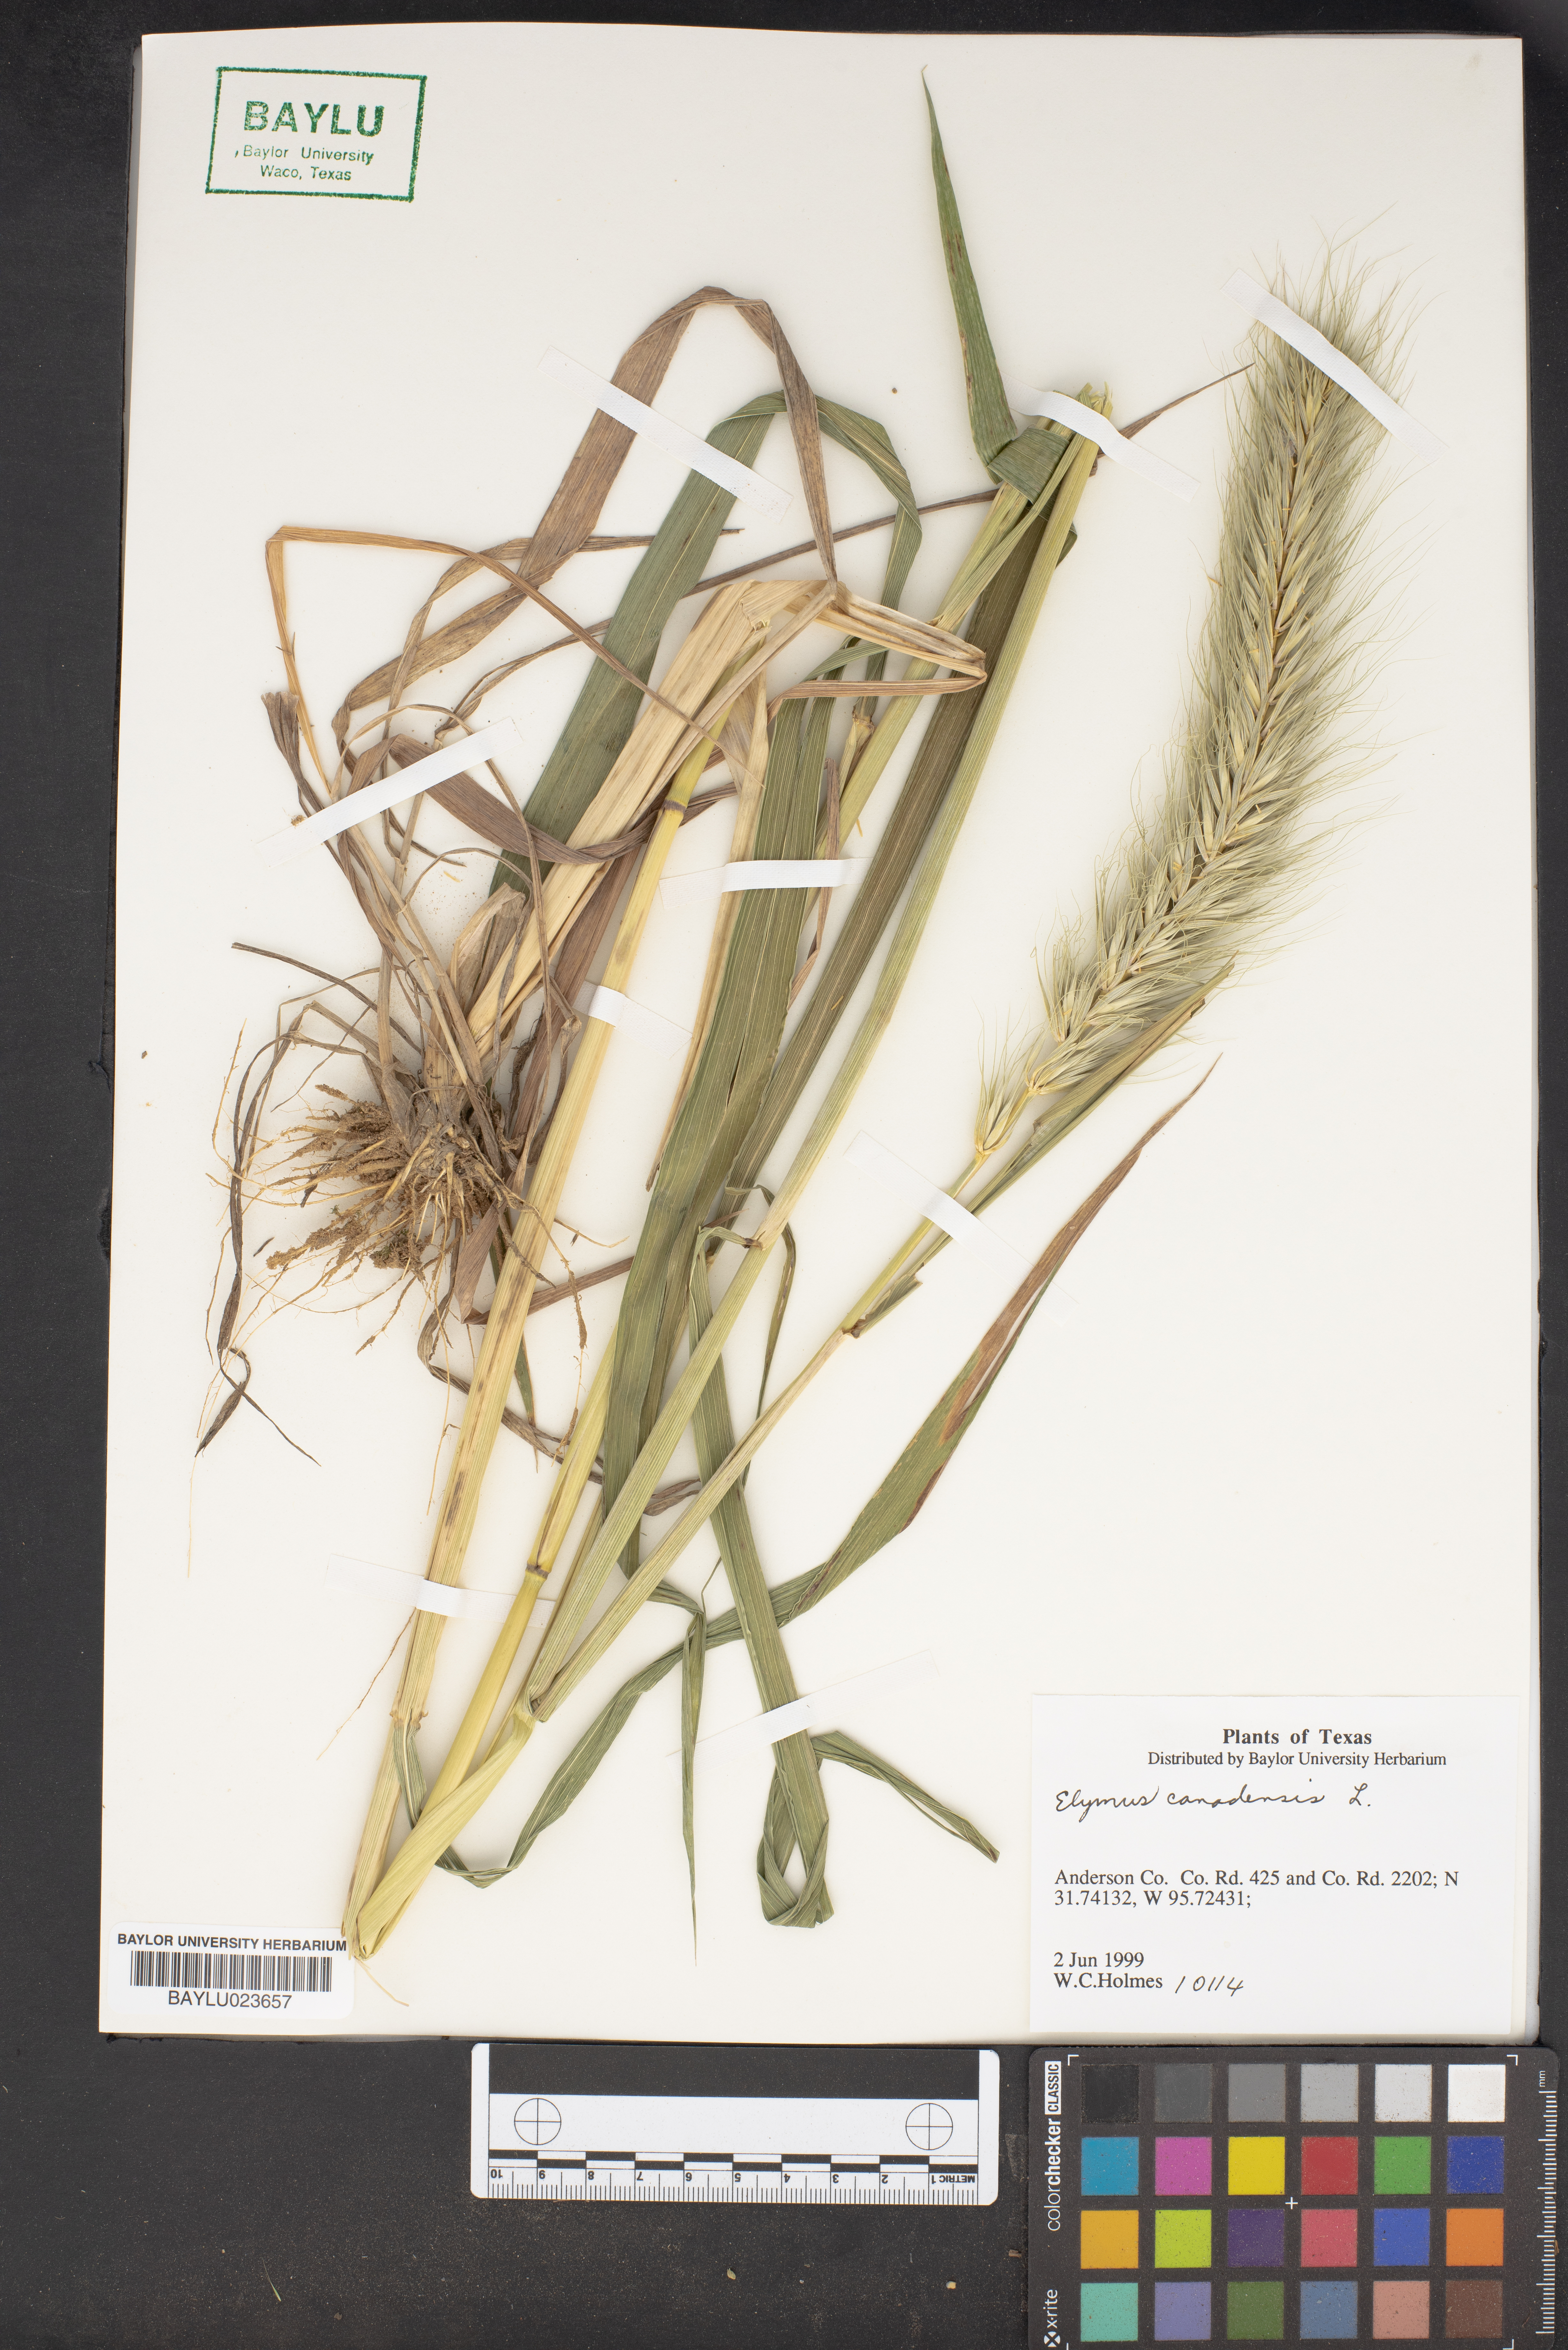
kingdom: Plantae
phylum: Tracheophyta
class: Liliopsida
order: Poales
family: Poaceae
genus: Elymus
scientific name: Elymus canadensis
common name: Canada wild rye
